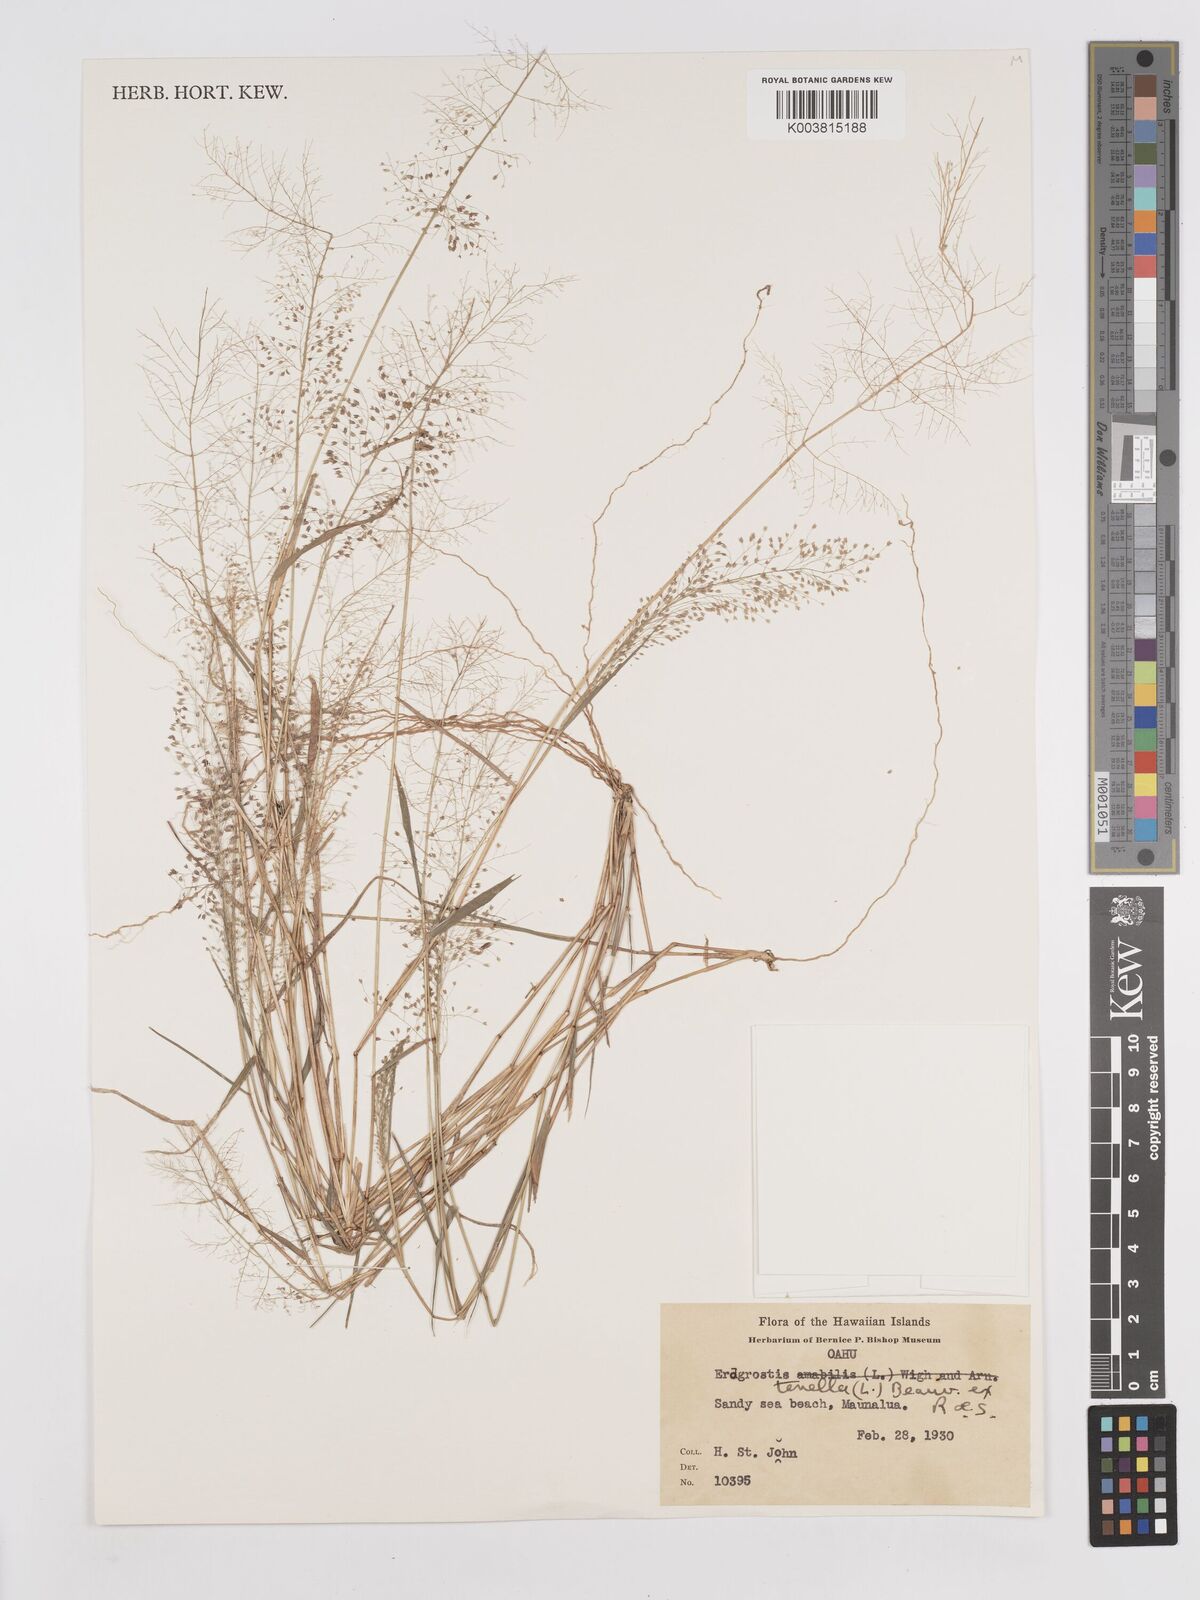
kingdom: Plantae
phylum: Tracheophyta
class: Liliopsida
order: Poales
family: Poaceae
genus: Eragrostis
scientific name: Eragrostis tenella
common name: Japanese lovegrass
